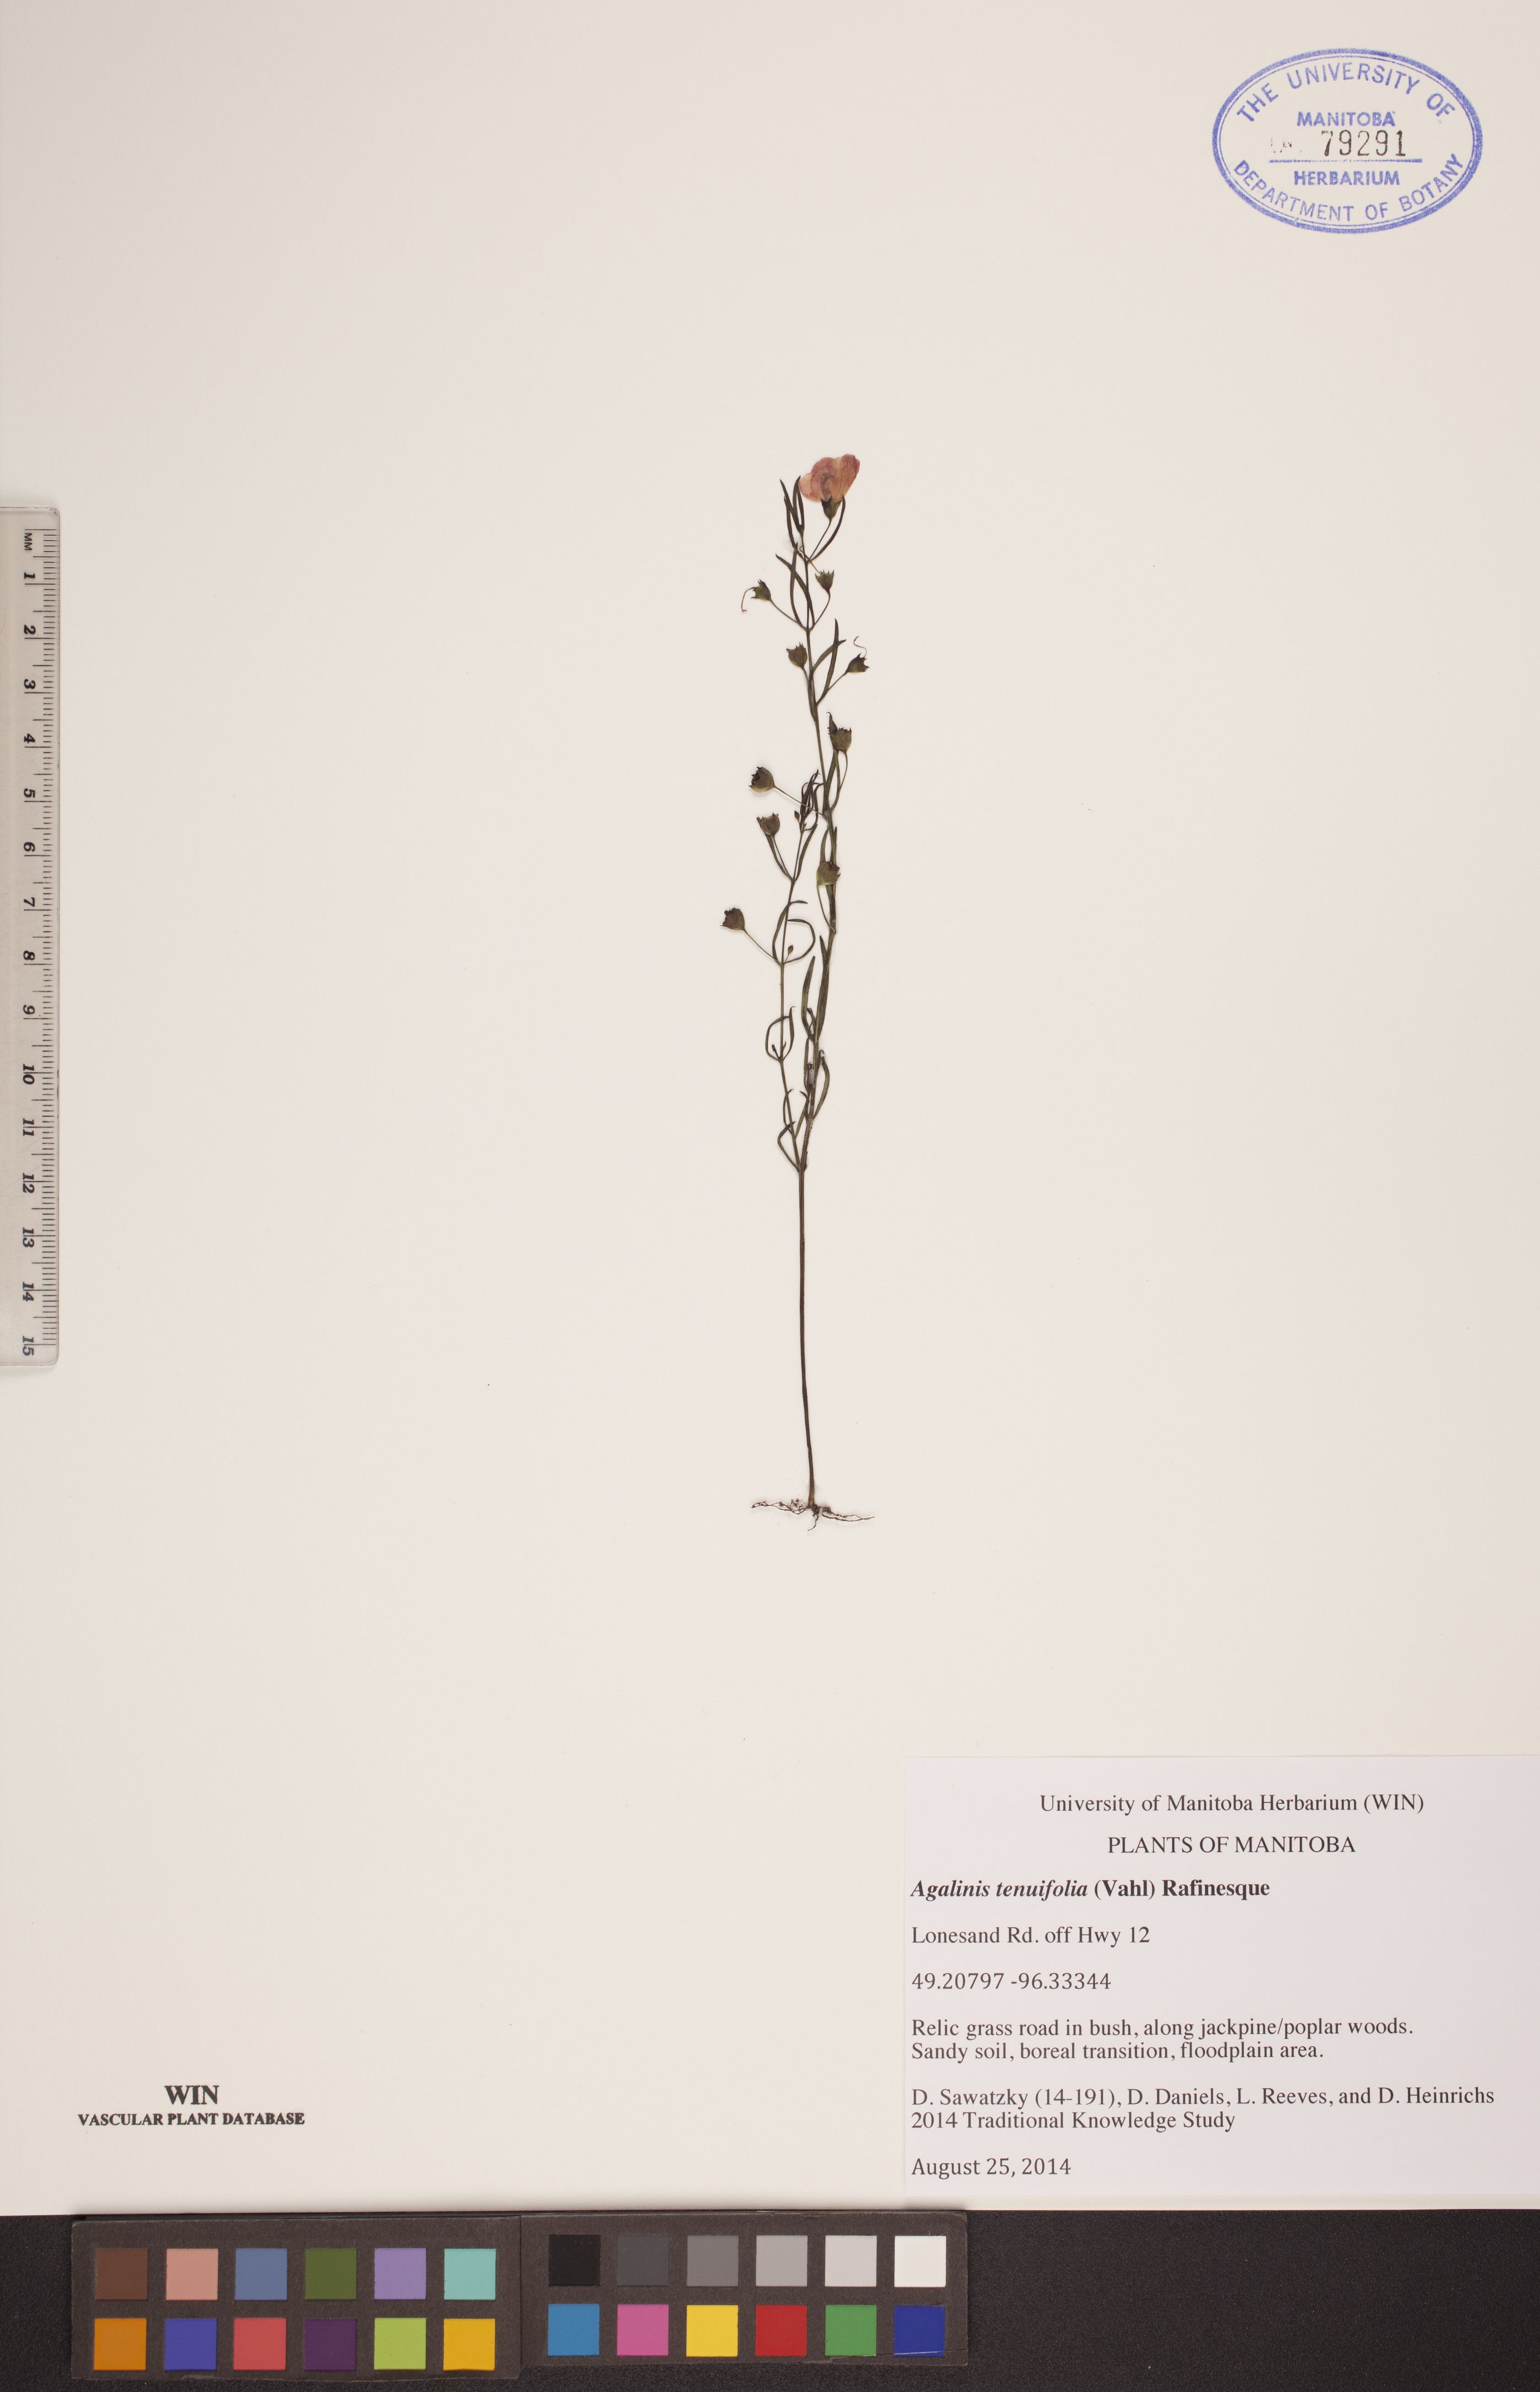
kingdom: Plantae
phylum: Tracheophyta
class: Magnoliopsida
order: Lamiales
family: Orobanchaceae
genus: Agalinis
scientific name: Agalinis tenuifolia
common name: Slender agalinis
